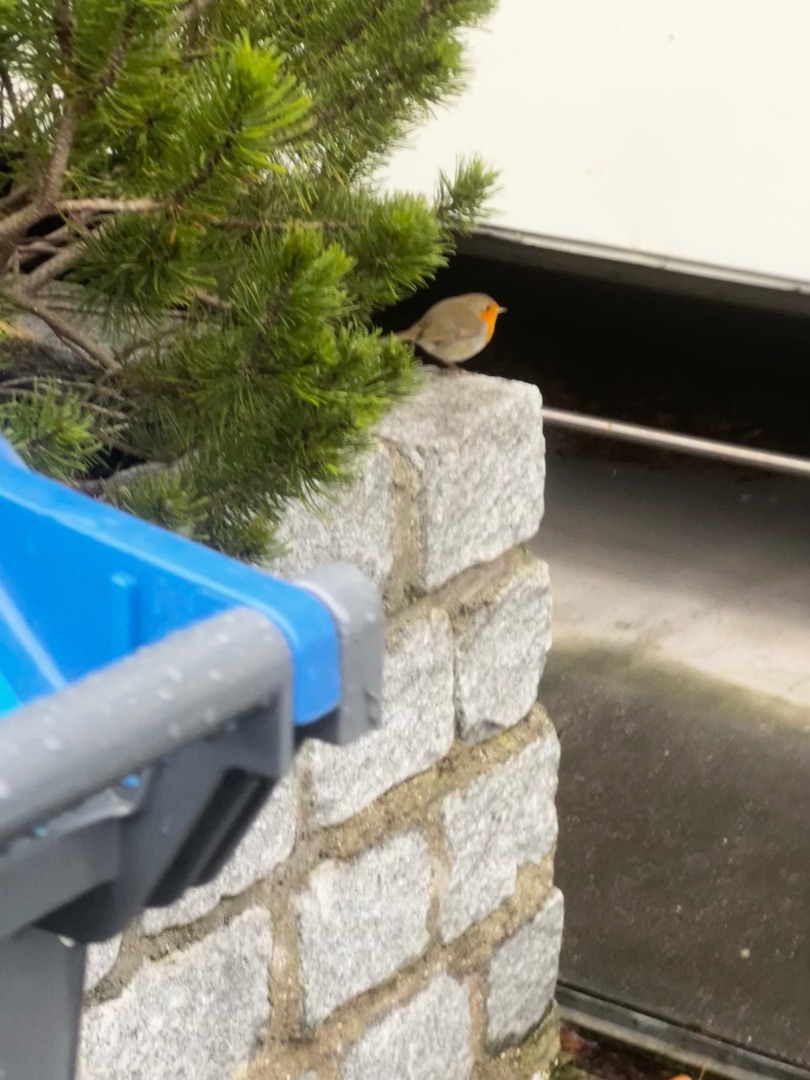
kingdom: Animalia
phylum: Chordata
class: Aves
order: Passeriformes
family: Muscicapidae
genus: Erithacus
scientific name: Erithacus rubecula
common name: Rødhals/rødkælk
